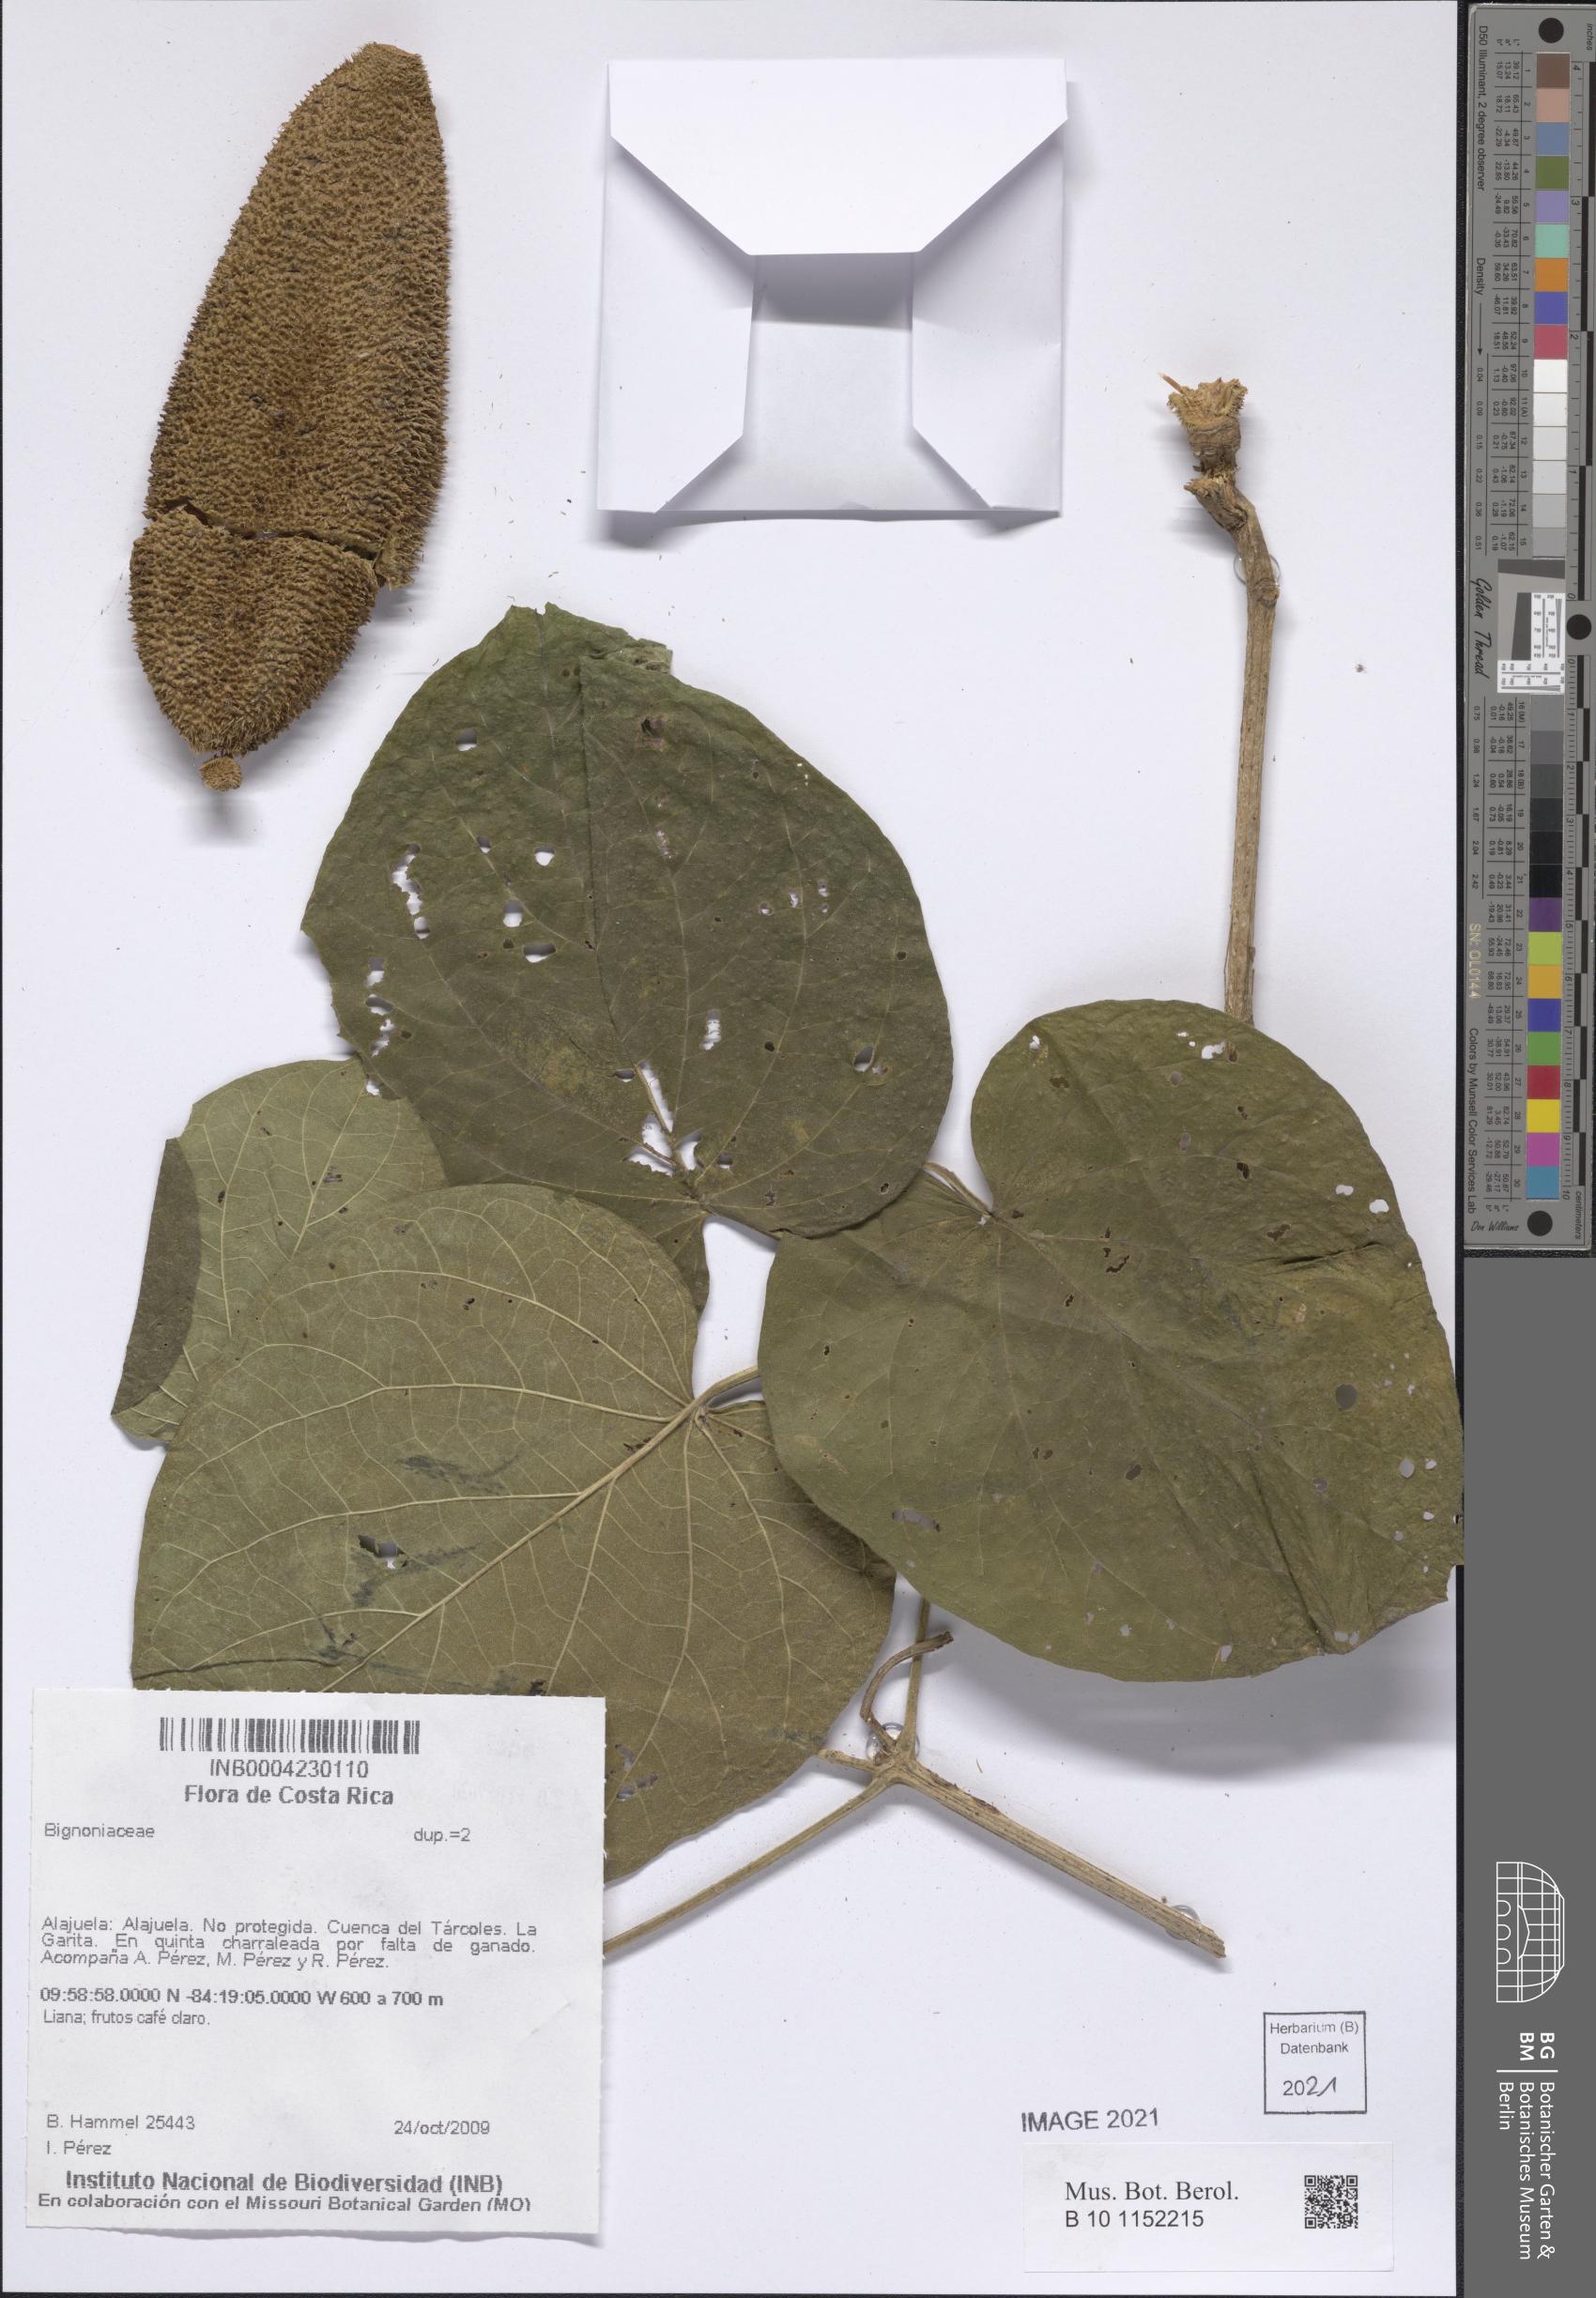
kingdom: Plantae
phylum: Tracheophyta
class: Magnoliopsida
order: Lamiales
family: Bignoniaceae
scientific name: Bignoniaceae
